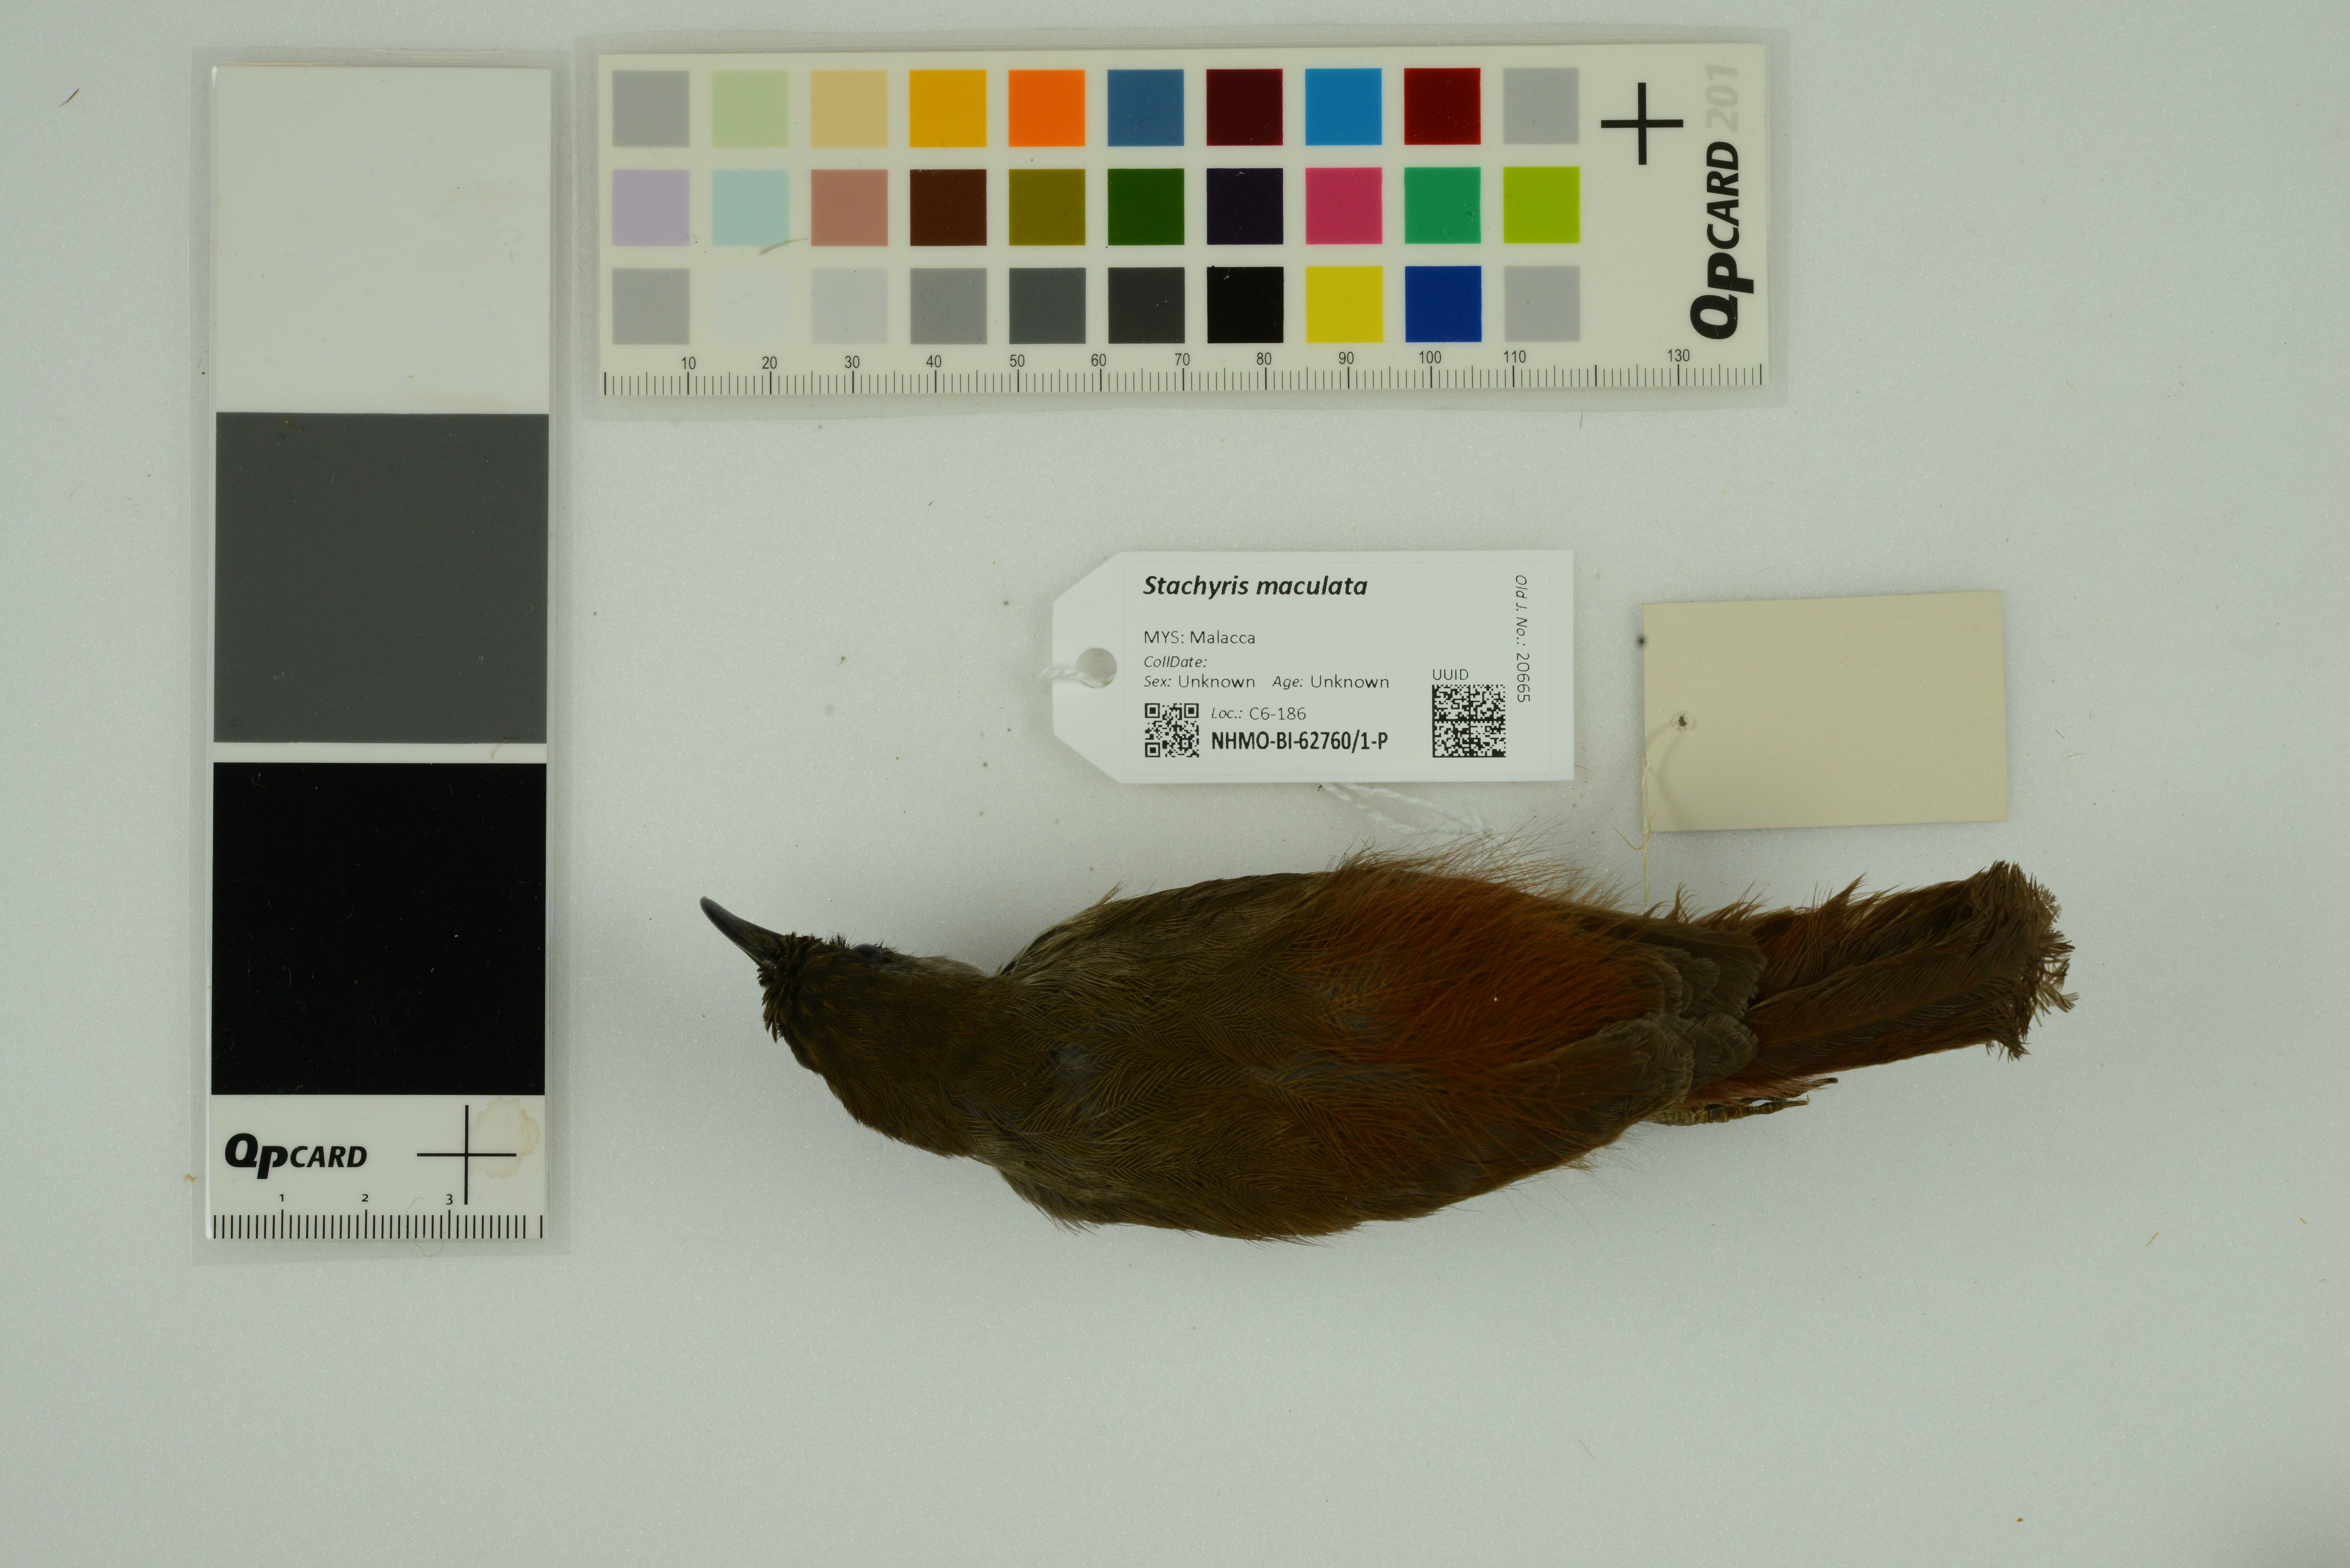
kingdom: Animalia
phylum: Chordata
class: Aves
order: Passeriformes
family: Timaliidae
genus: Stachyris
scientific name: Stachyris maculata
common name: Chestnut-rumped babbler
